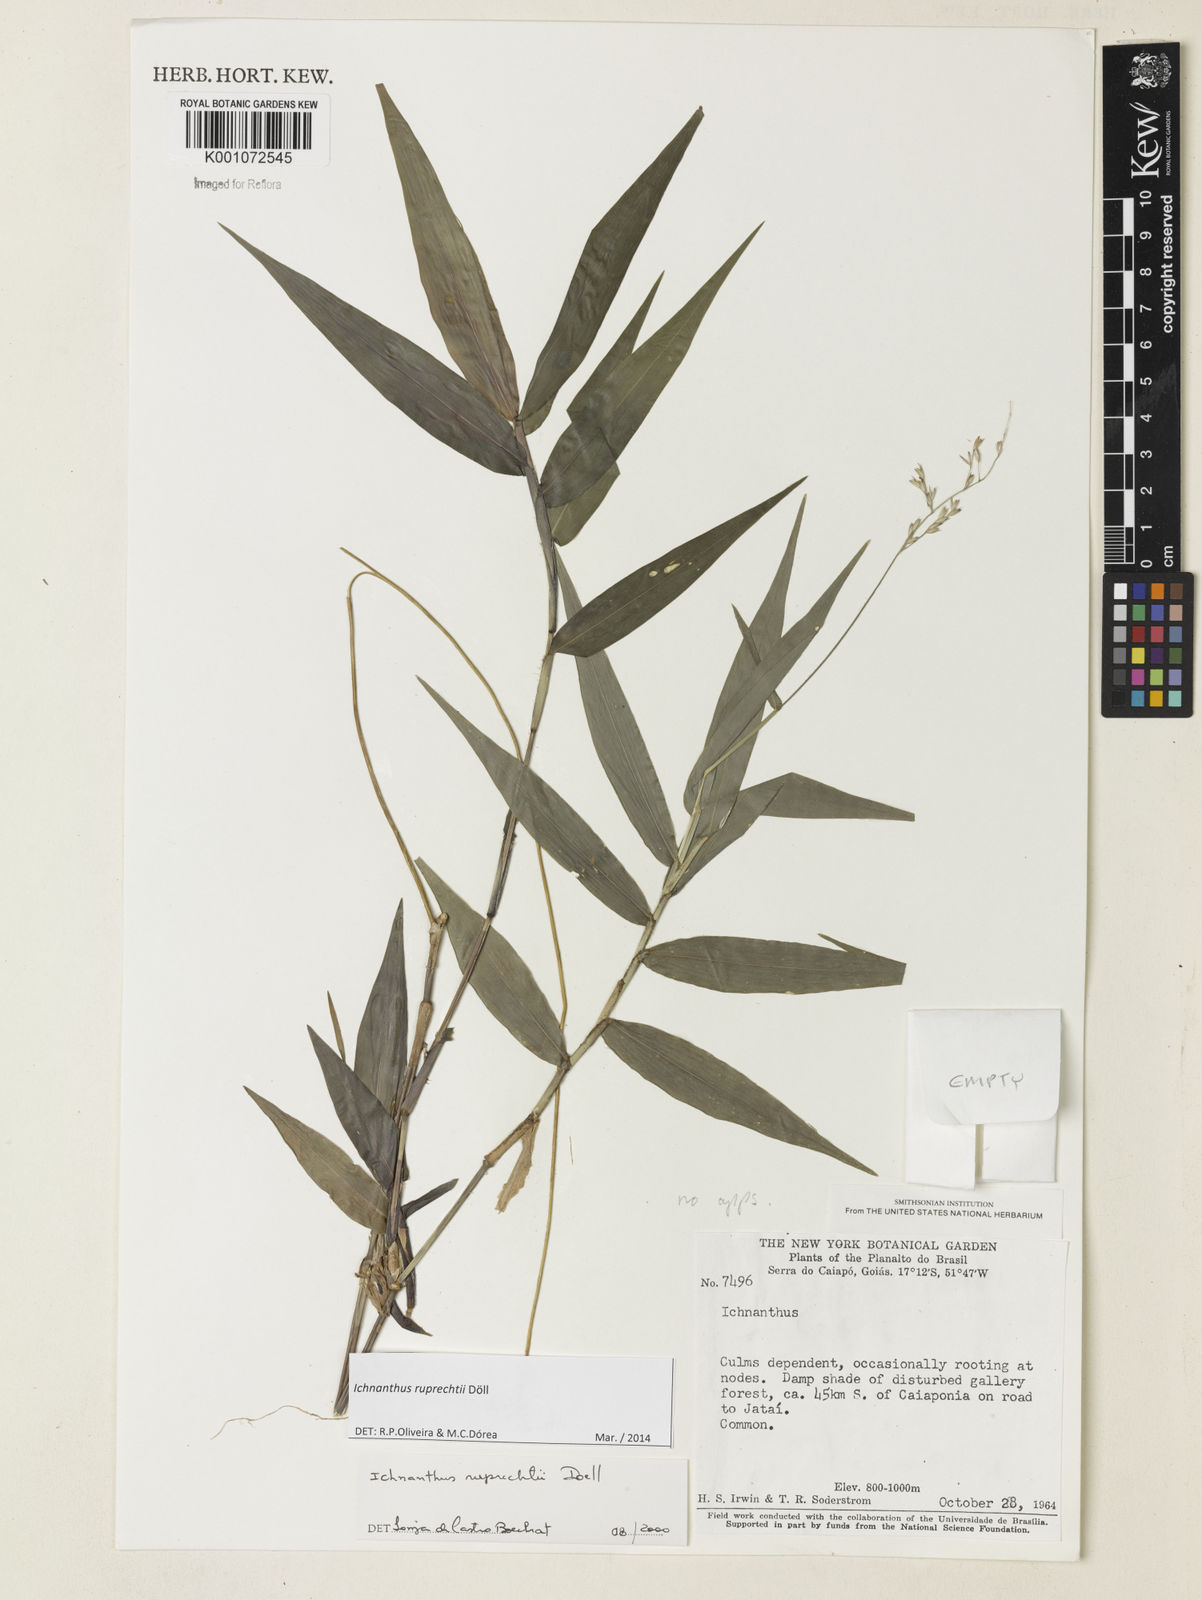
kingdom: Plantae
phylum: Tracheophyta
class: Liliopsida
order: Poales
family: Poaceae
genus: Ichnanthus
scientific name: Ichnanthus
